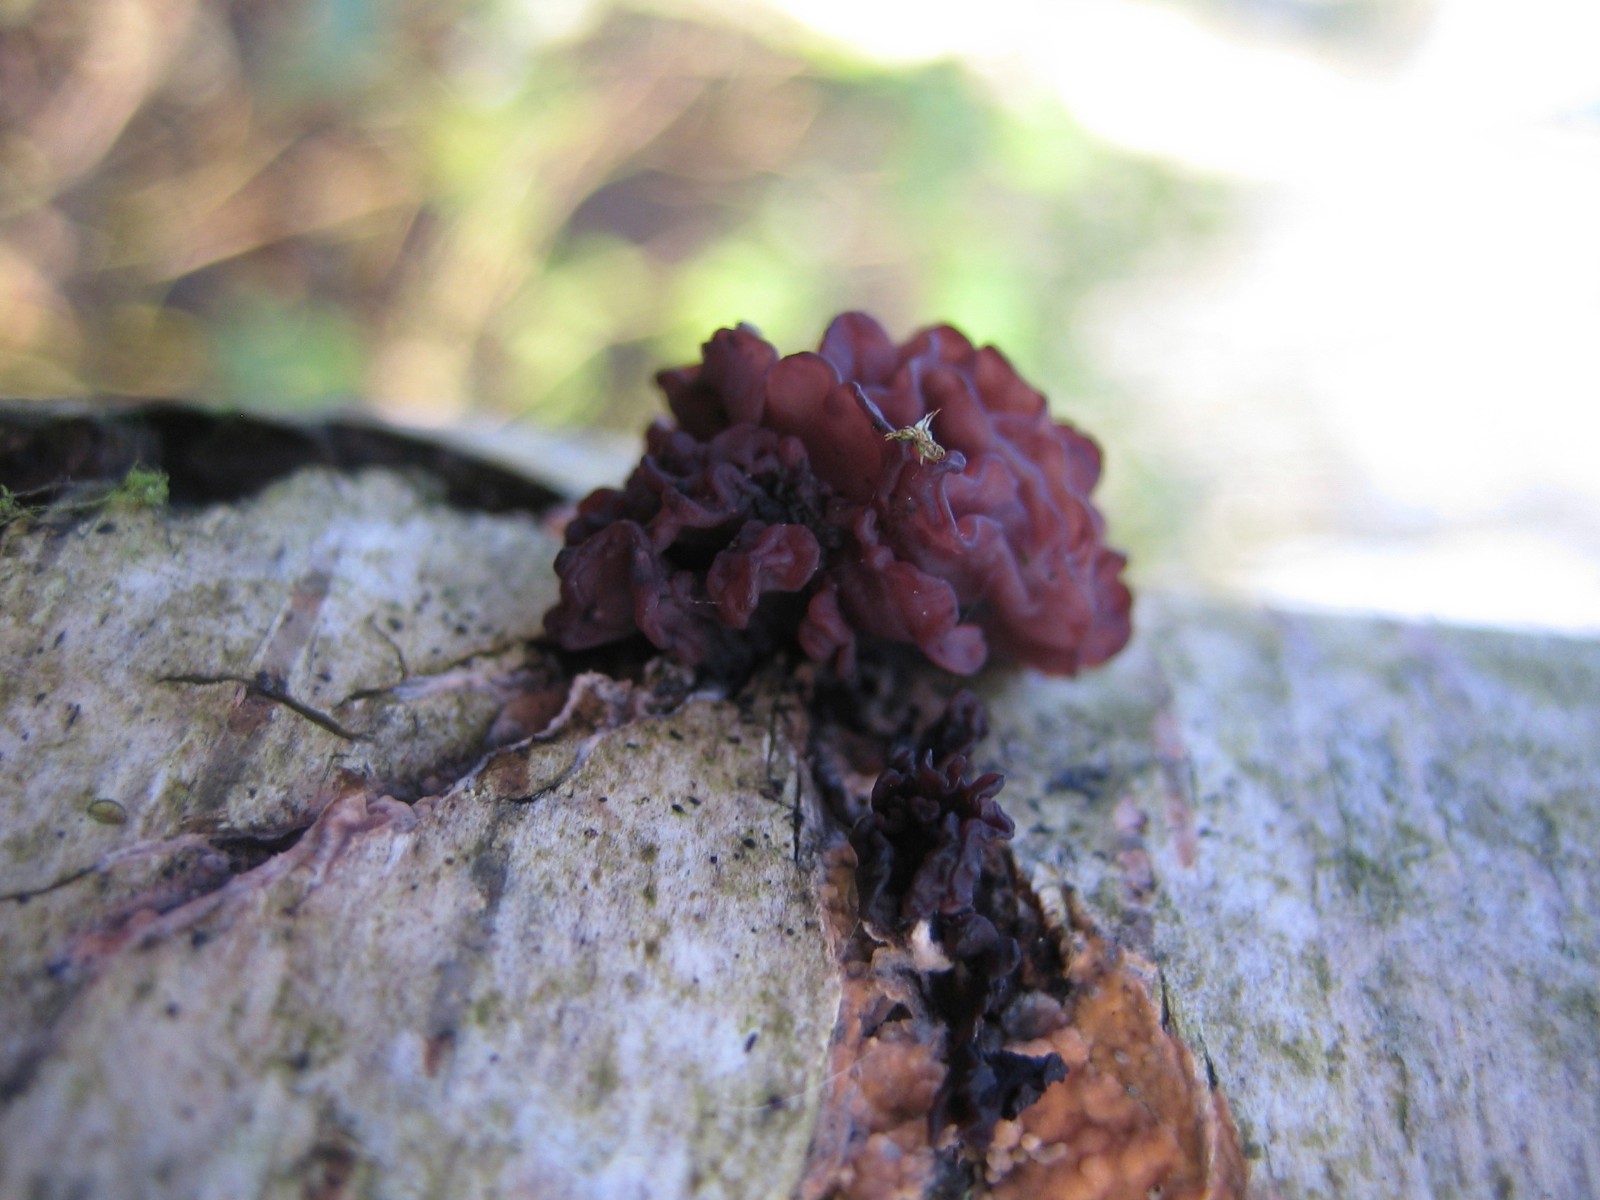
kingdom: Fungi
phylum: Ascomycota
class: Leotiomycetes
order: Helotiales
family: Gelatinodiscaceae
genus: Ascocoryne
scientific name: Ascocoryne sarcoides
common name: rødlilla sejskive
